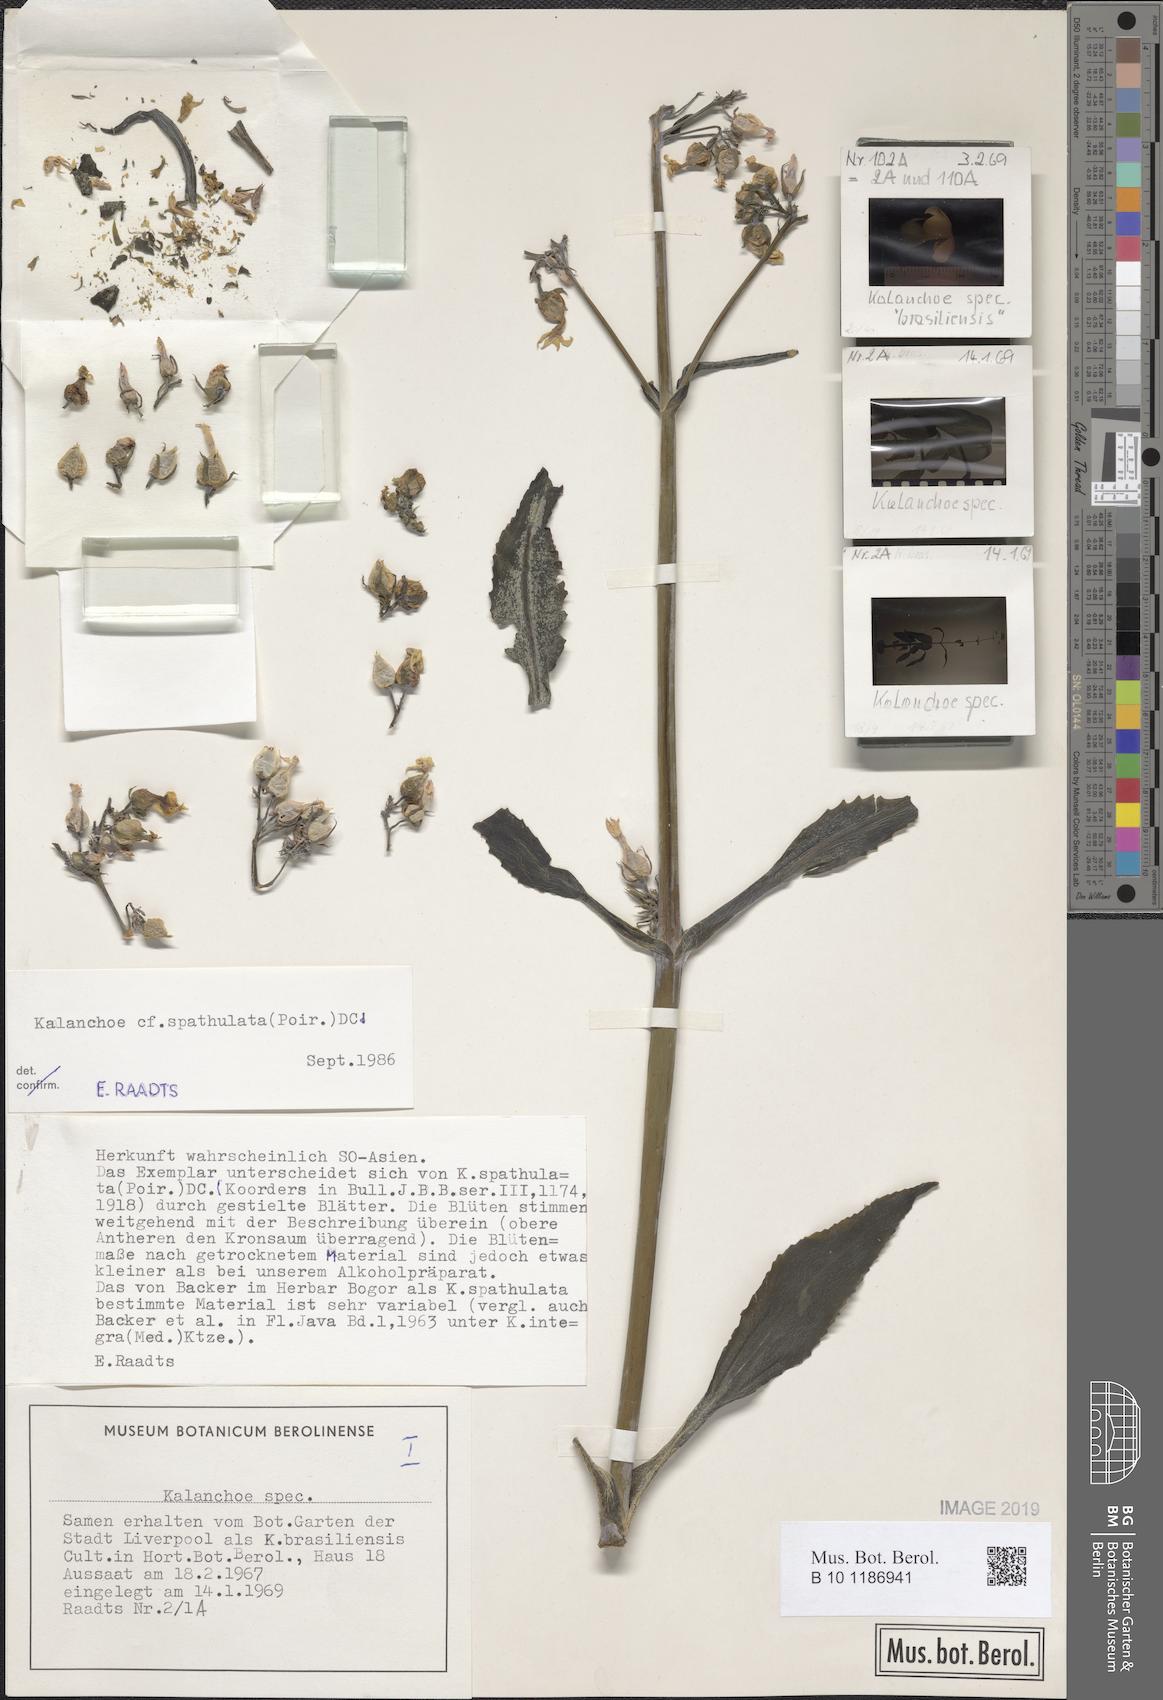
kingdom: Plantae
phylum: Tracheophyta
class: Magnoliopsida
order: Saxifragales
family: Crassulaceae
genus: Kalanchoe
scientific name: Kalanchoe integra
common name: Neverdie
